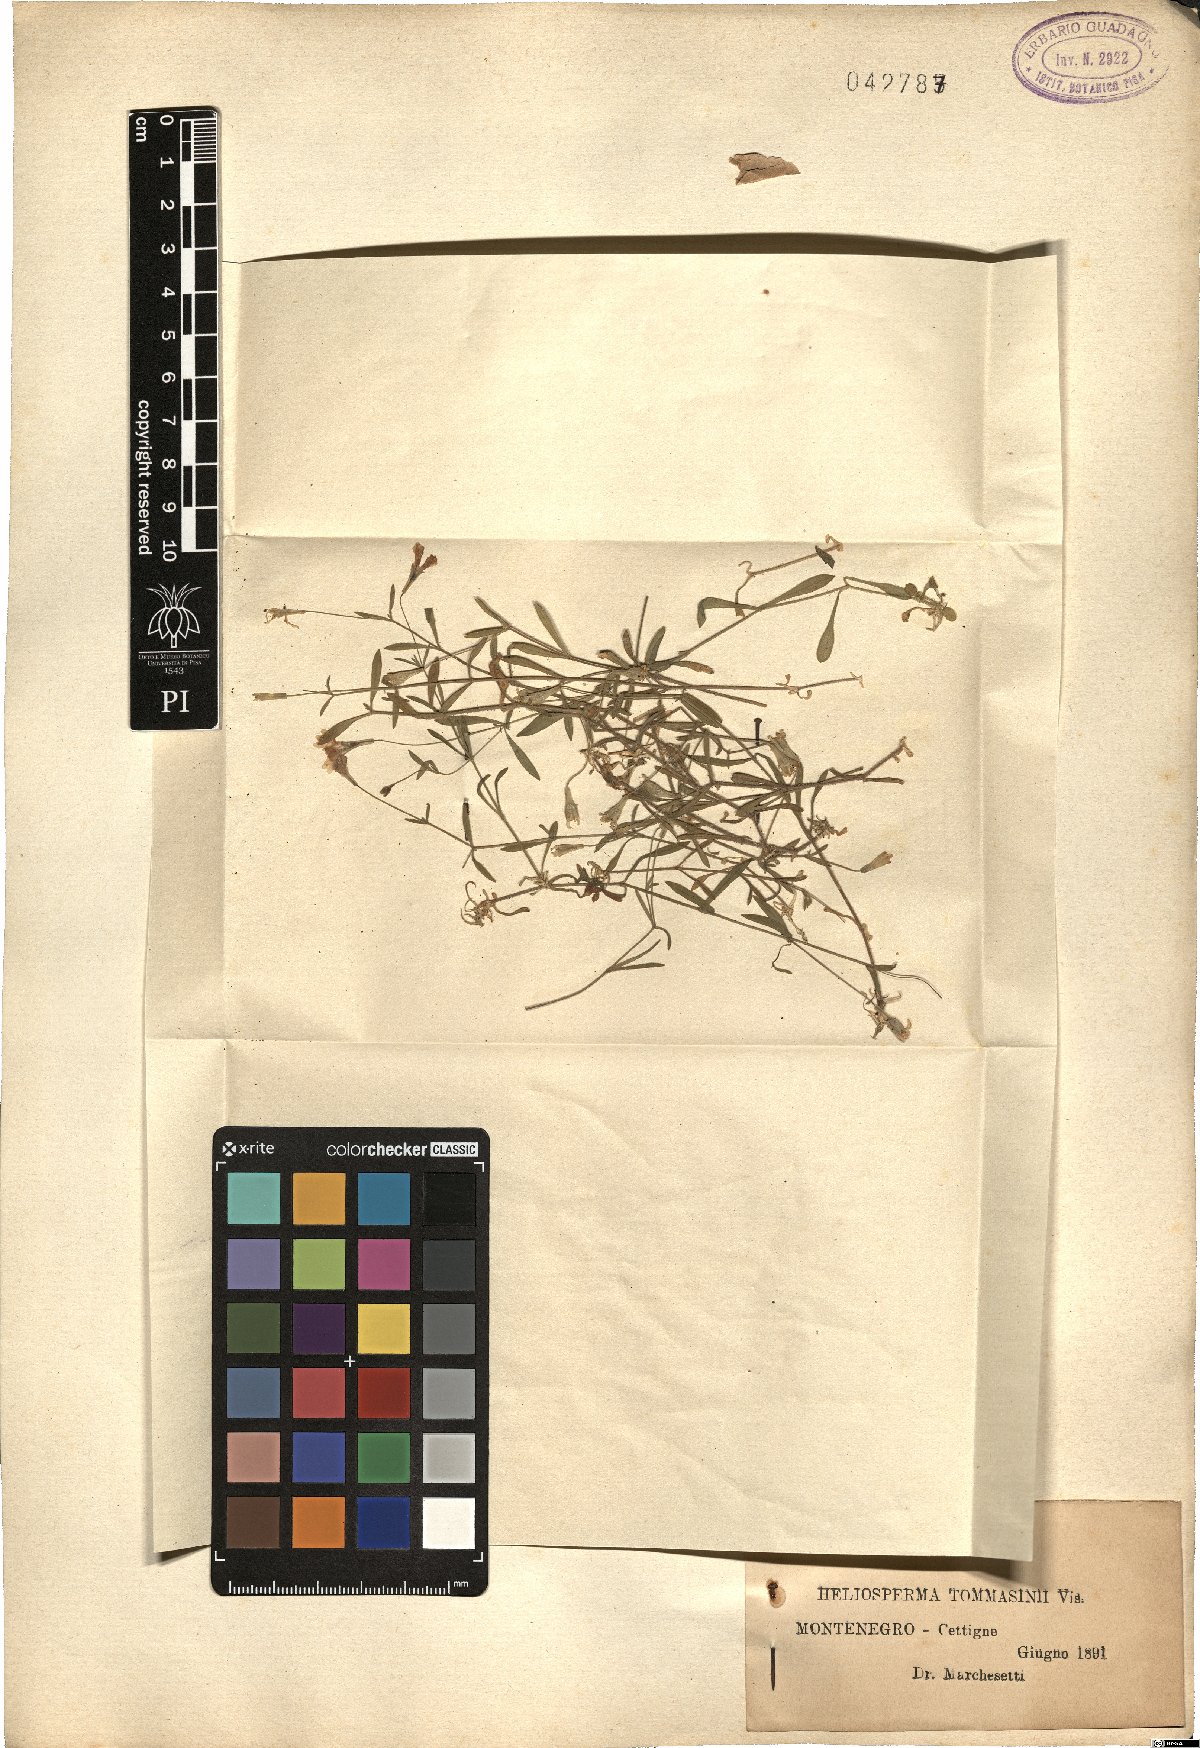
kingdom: Plantae
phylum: Tracheophyta
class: Magnoliopsida
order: Caryophyllales
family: Caryophyllaceae
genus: Heliosperma
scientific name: Heliosperma pusillum
